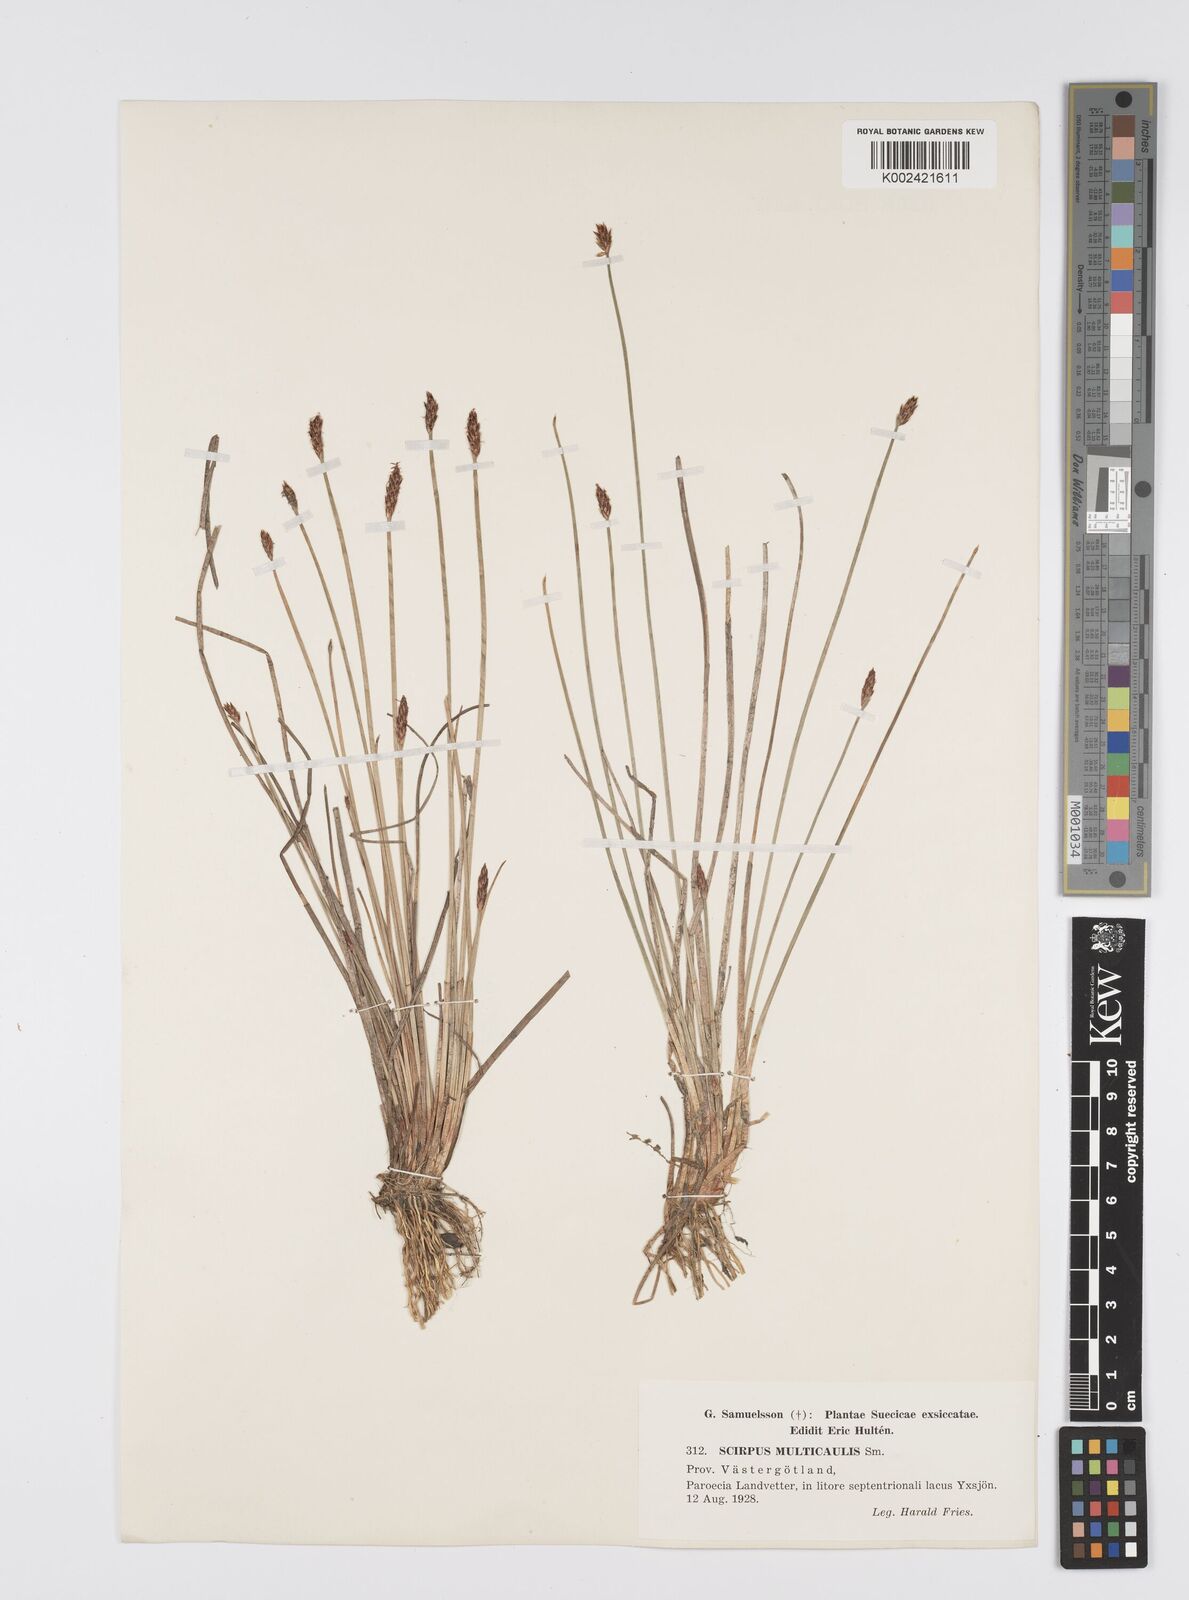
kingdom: Plantae
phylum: Tracheophyta
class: Liliopsida
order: Poales
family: Cyperaceae
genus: Eleocharis
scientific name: Eleocharis multicaulis
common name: Many-stalked spike-rush
